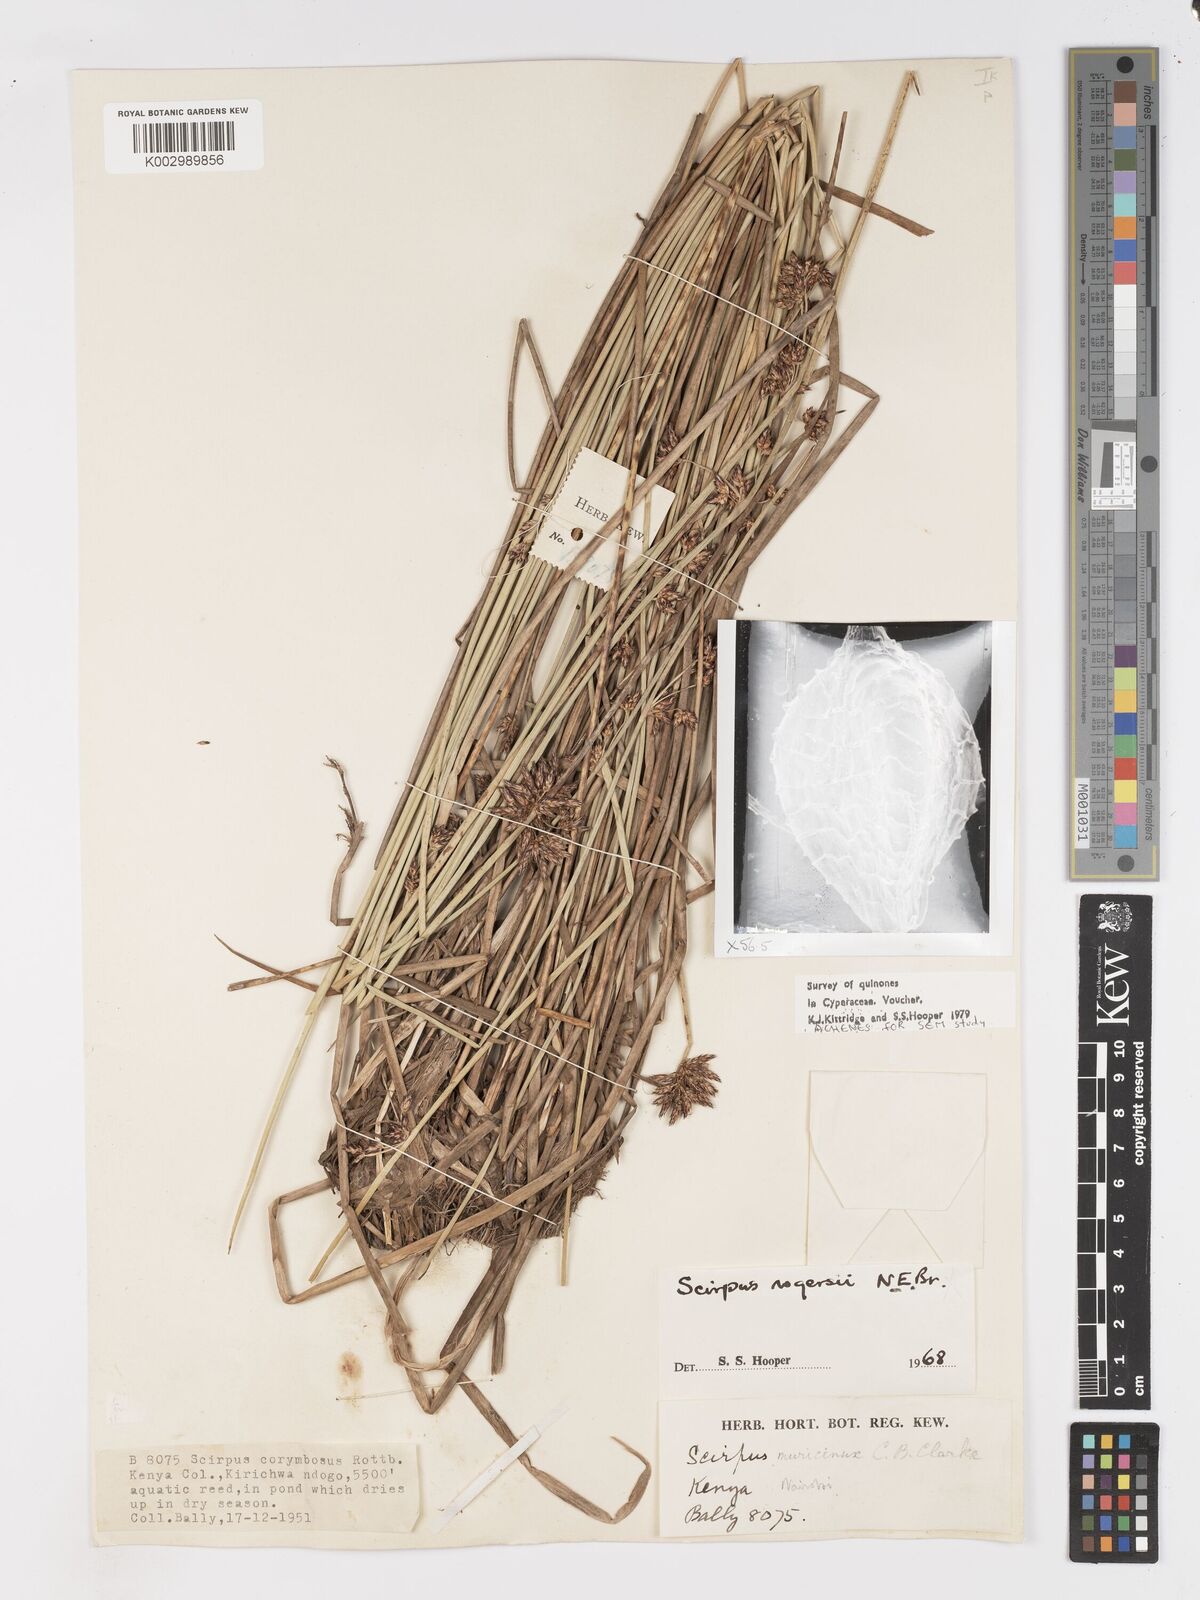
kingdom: Plantae
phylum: Tracheophyta
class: Liliopsida
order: Poales
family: Cyperaceae
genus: Schoenoplectiella
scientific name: Schoenoplectiella rogersii
